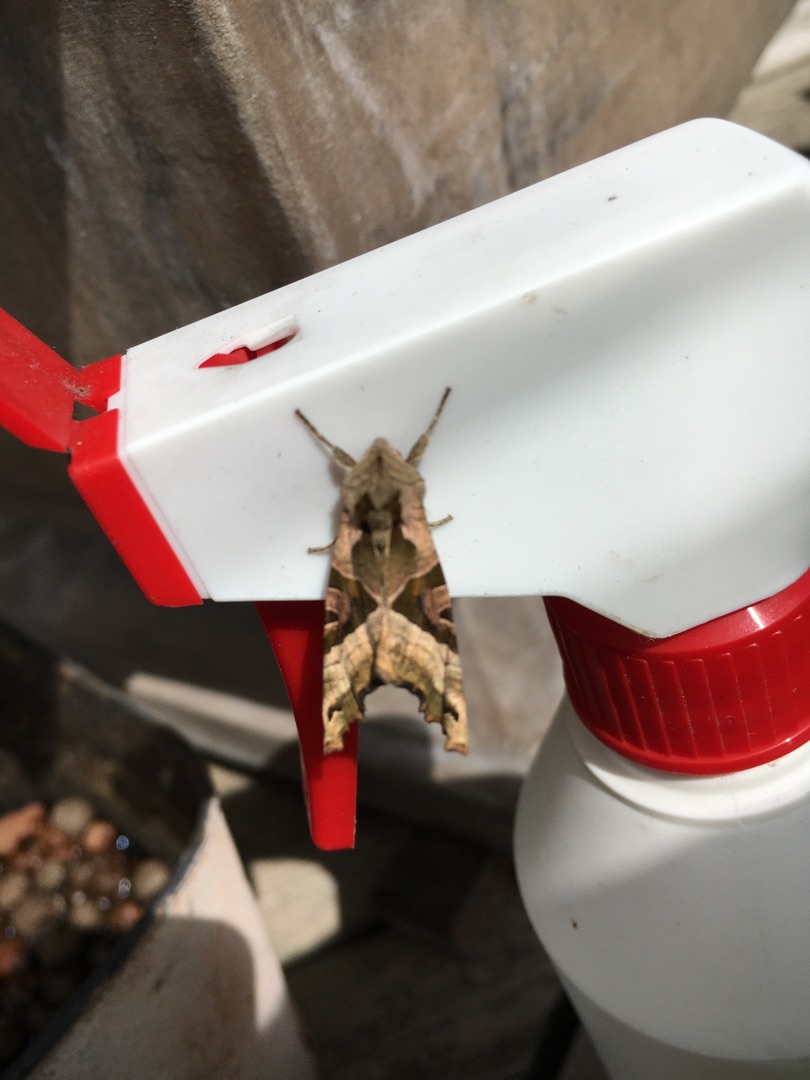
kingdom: Animalia
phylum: Arthropoda
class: Insecta
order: Lepidoptera
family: Noctuidae
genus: Phlogophora
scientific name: Phlogophora meticulosa
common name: Agatugle
